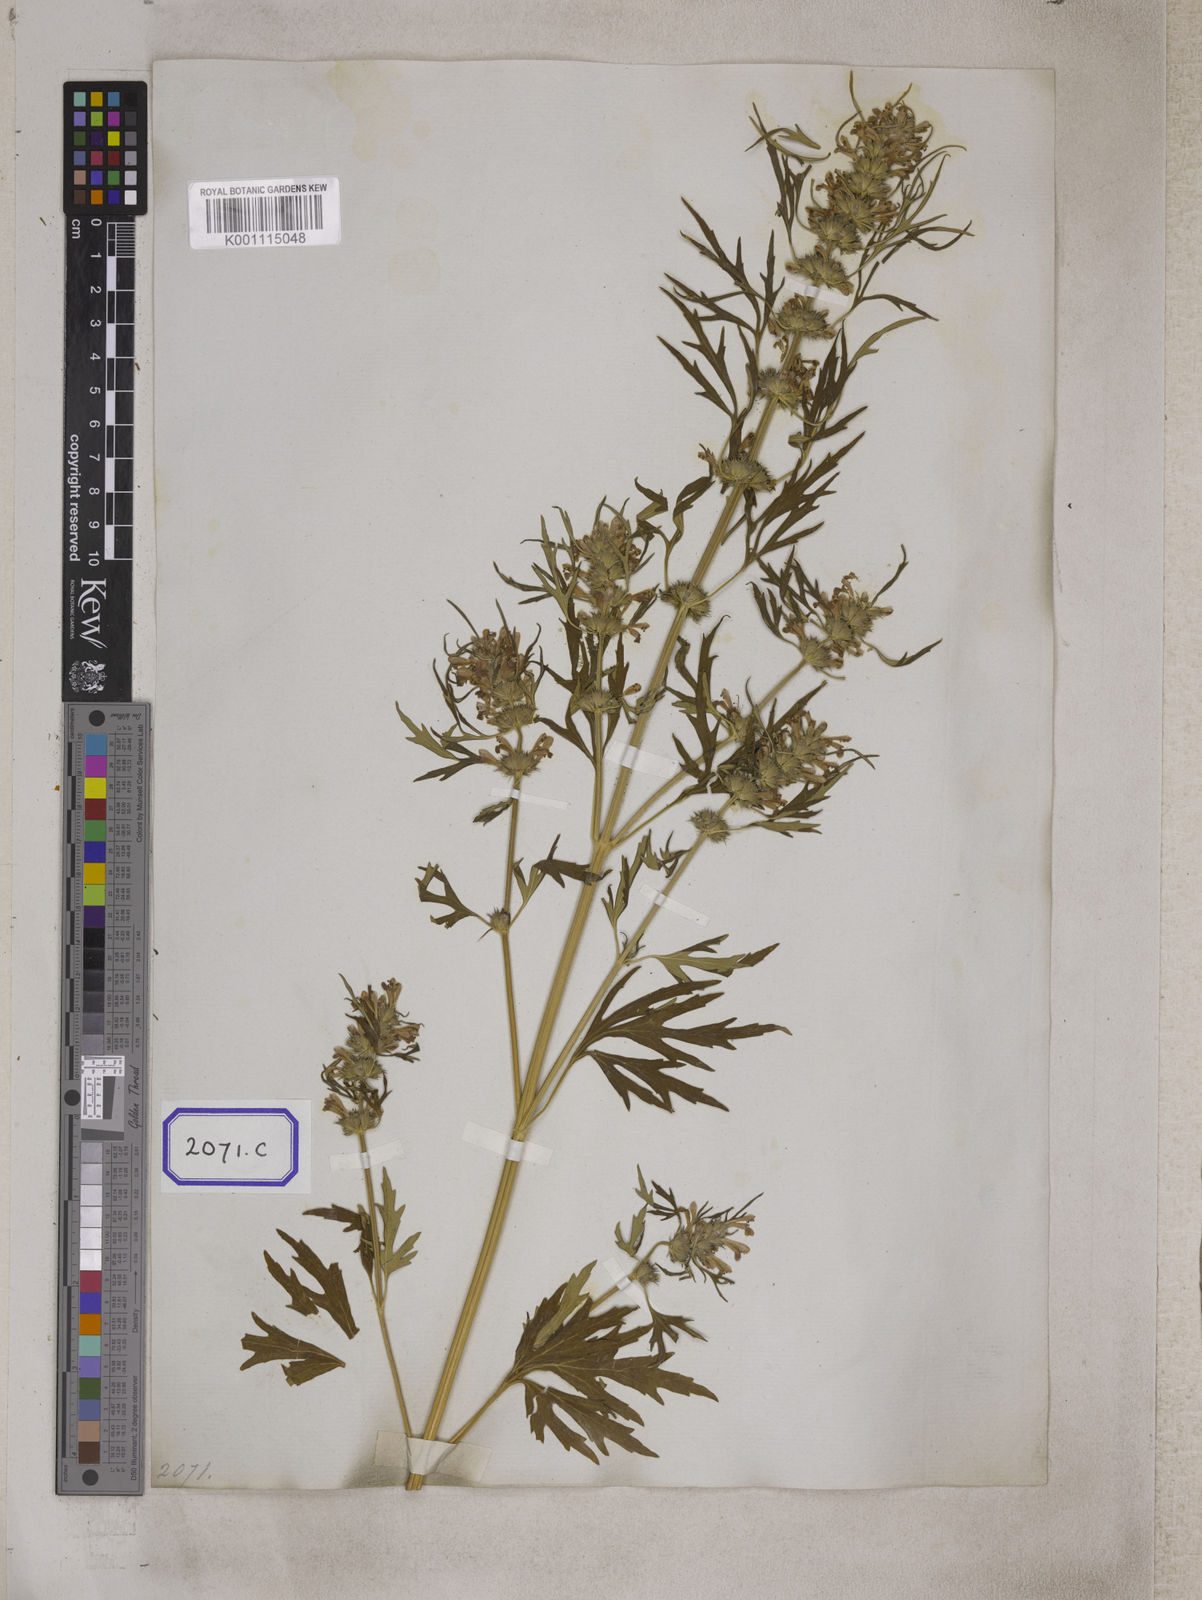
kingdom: Plantae
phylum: Tracheophyta
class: Magnoliopsida
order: Lamiales
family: Lamiaceae
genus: Leonurus
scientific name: Leonurus sibiricus
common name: Honeyweed
